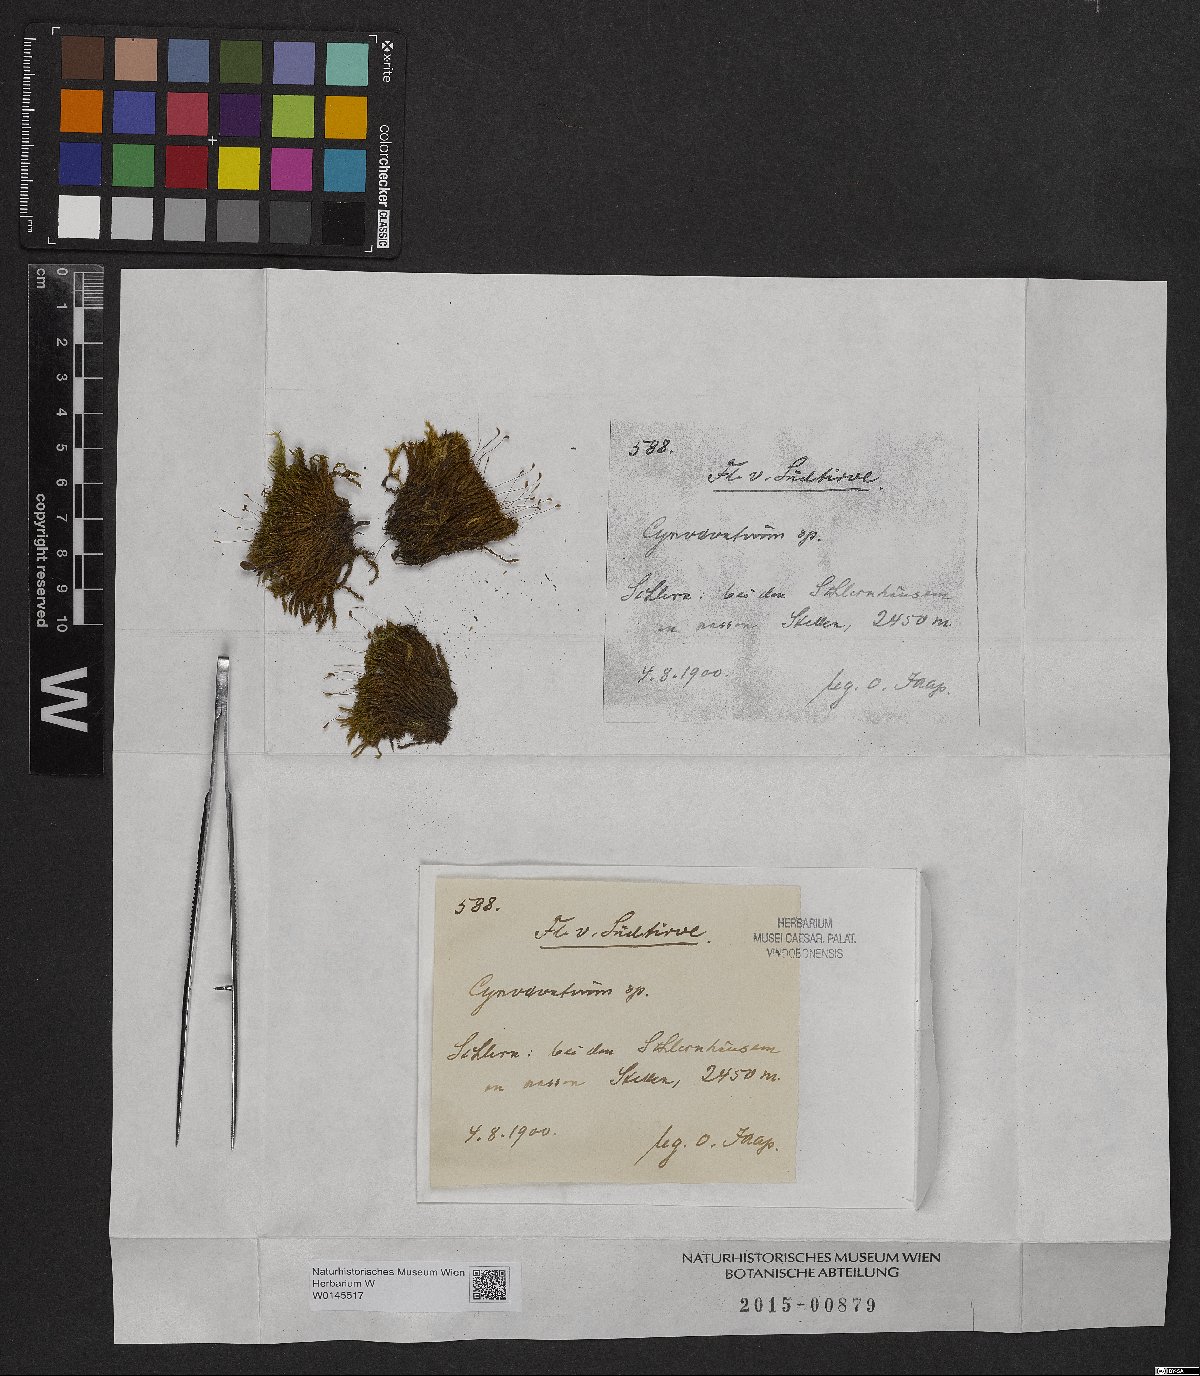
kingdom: Plantae
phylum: Bryophyta
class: Bryopsida
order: Dicranales
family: Rhabdoweisiaceae
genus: Cynodontium
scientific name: Cynodontium
